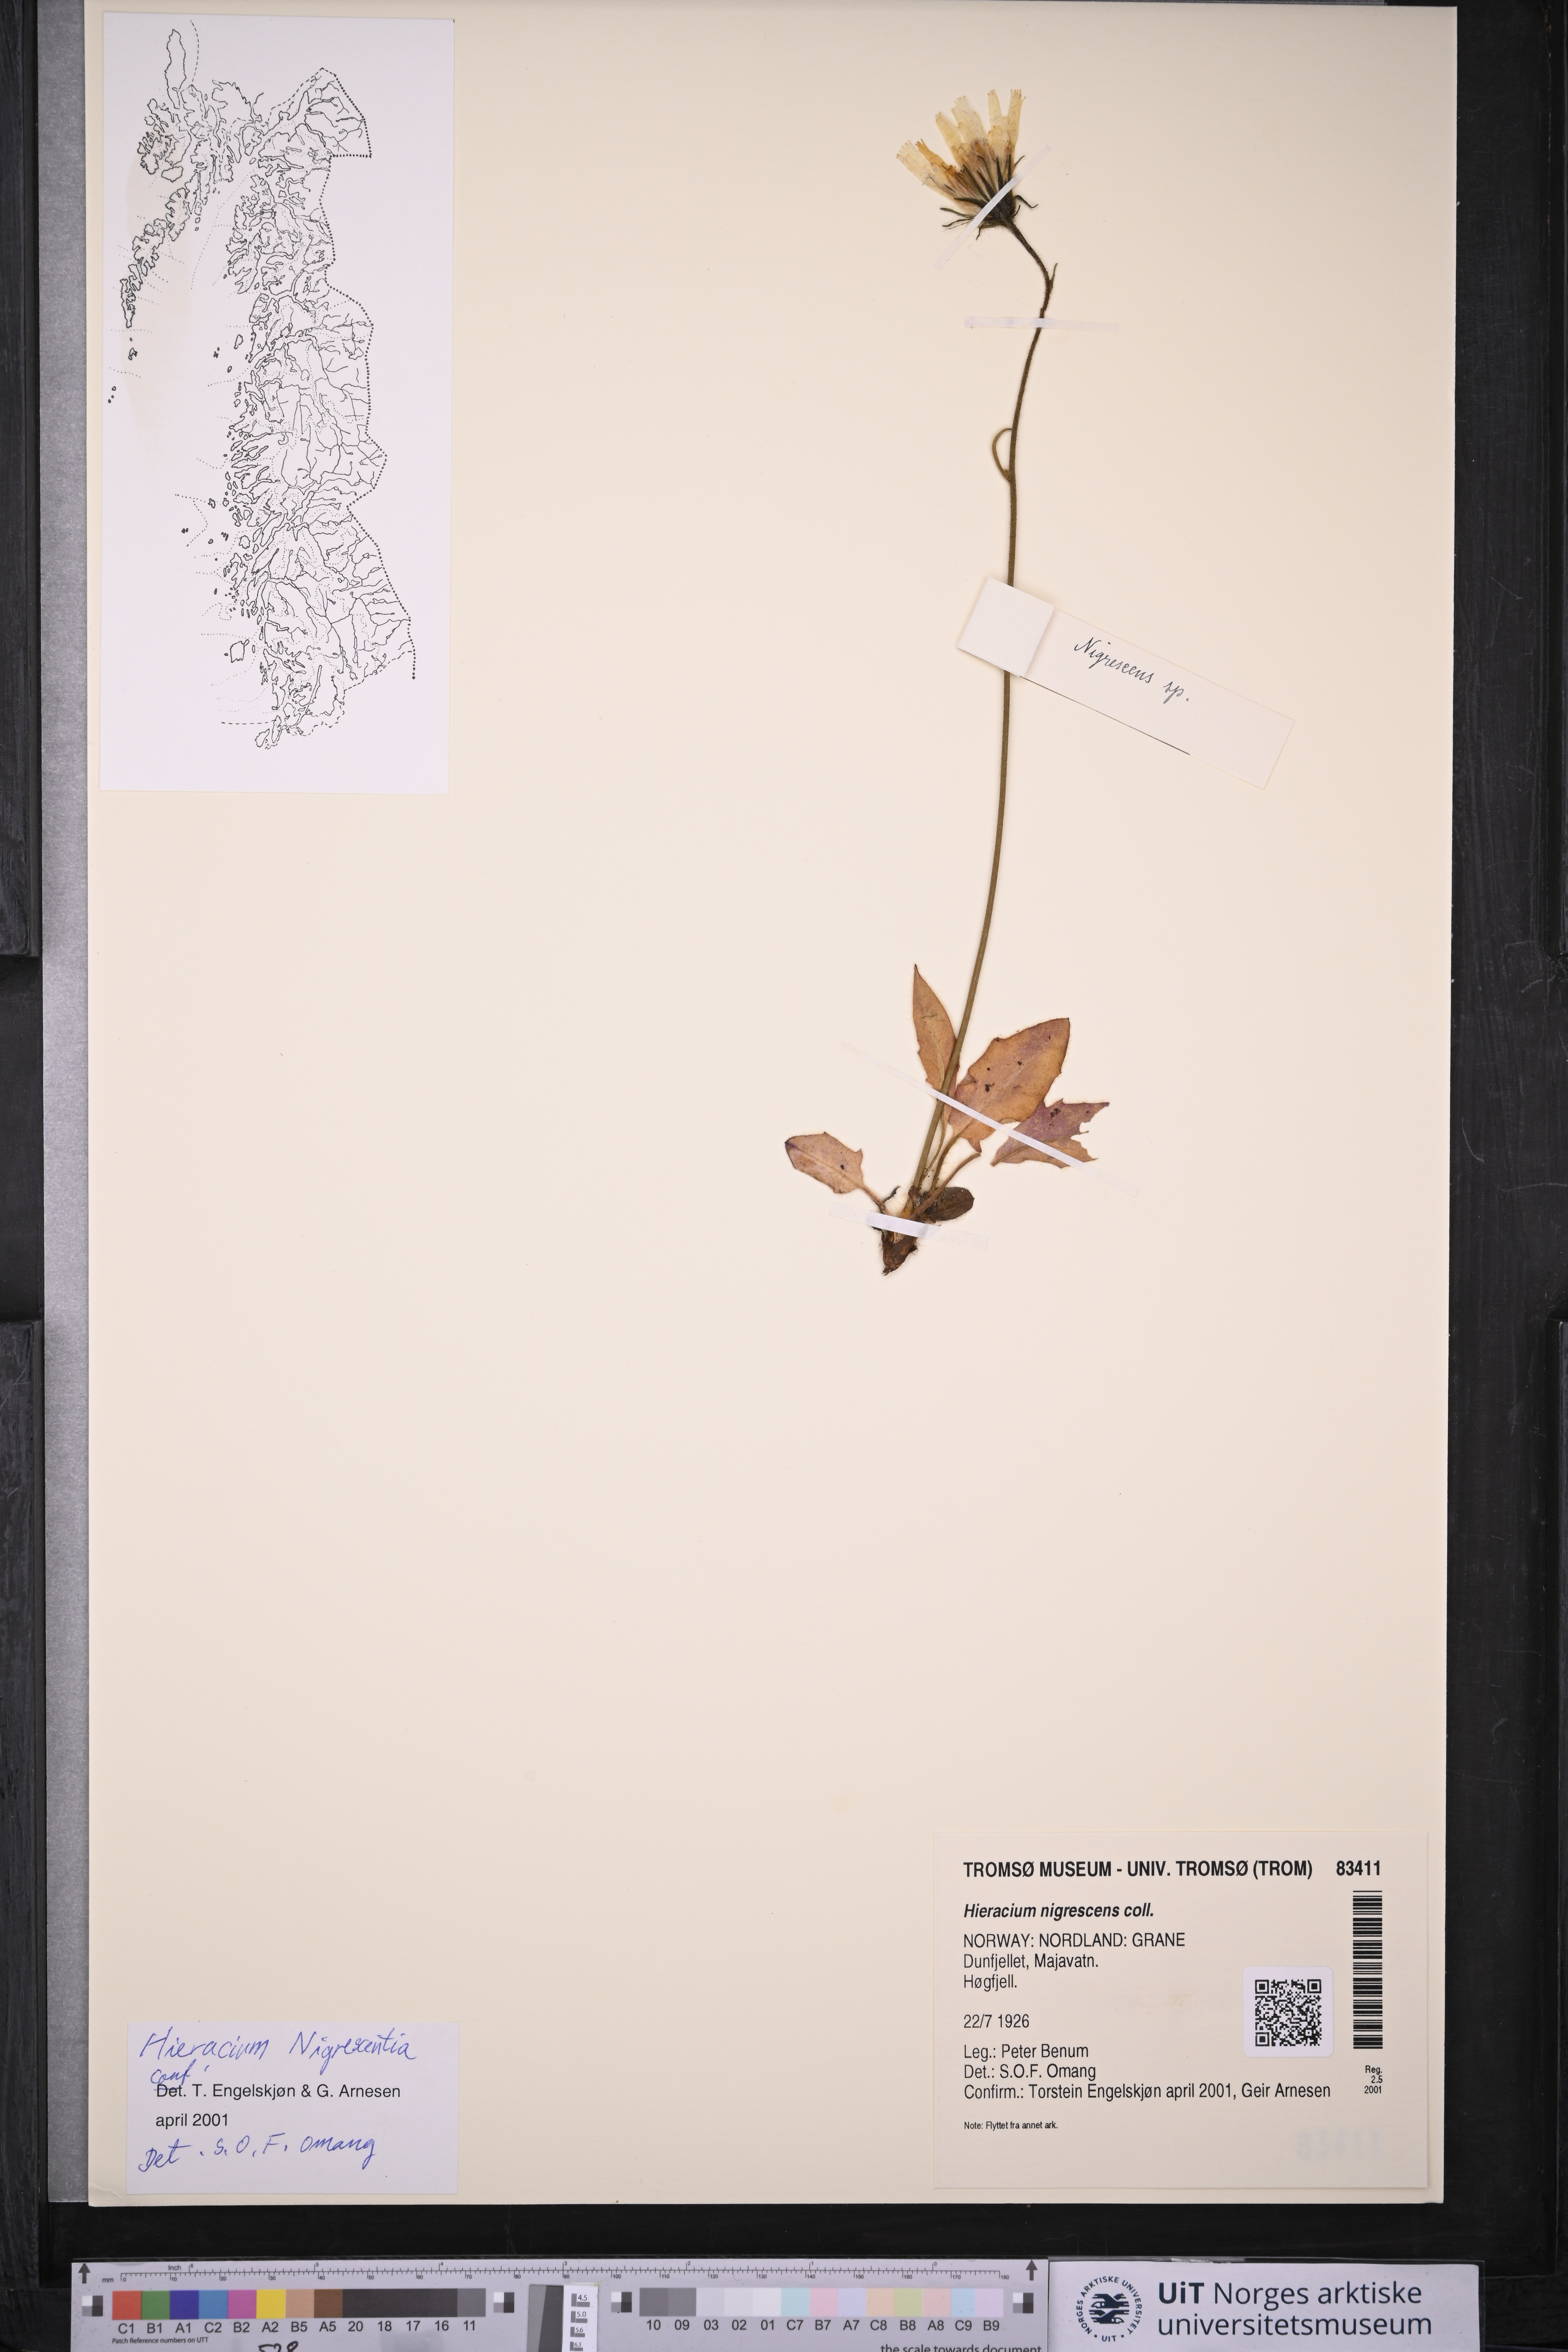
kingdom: Plantae
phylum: Tracheophyta
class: Magnoliopsida
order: Asterales
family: Asteraceae
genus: Hieracium
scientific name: Hieracium nigrescens
